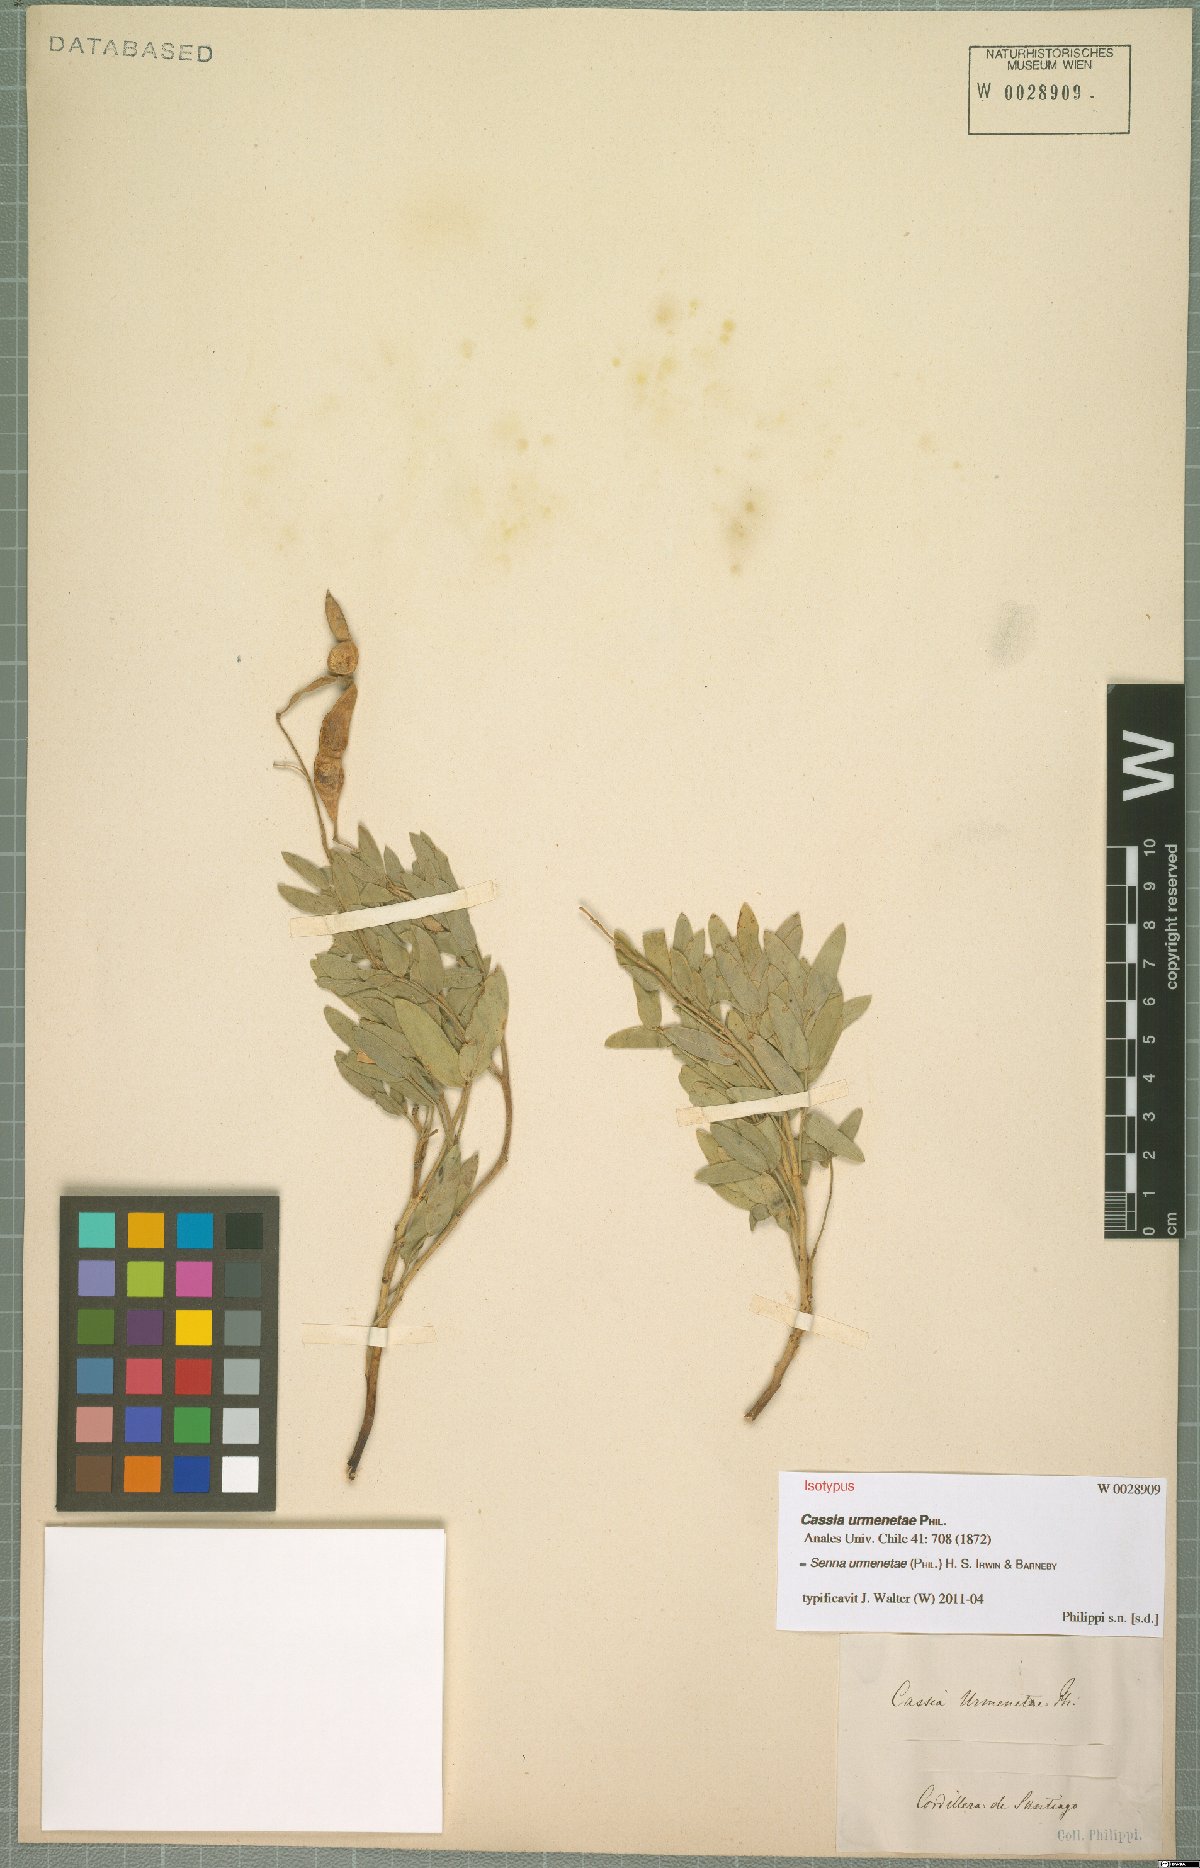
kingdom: Plantae
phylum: Tracheophyta
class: Magnoliopsida
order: Fabales
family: Fabaceae
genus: Senna
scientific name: Senna urmenetae
